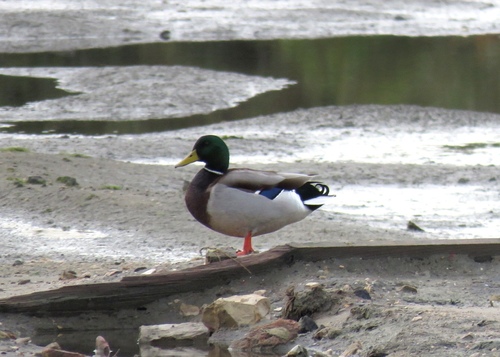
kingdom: Animalia
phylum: Chordata
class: Aves
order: Anseriformes
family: Anatidae
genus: Anas
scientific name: Anas platyrhynchos
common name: Mallard
